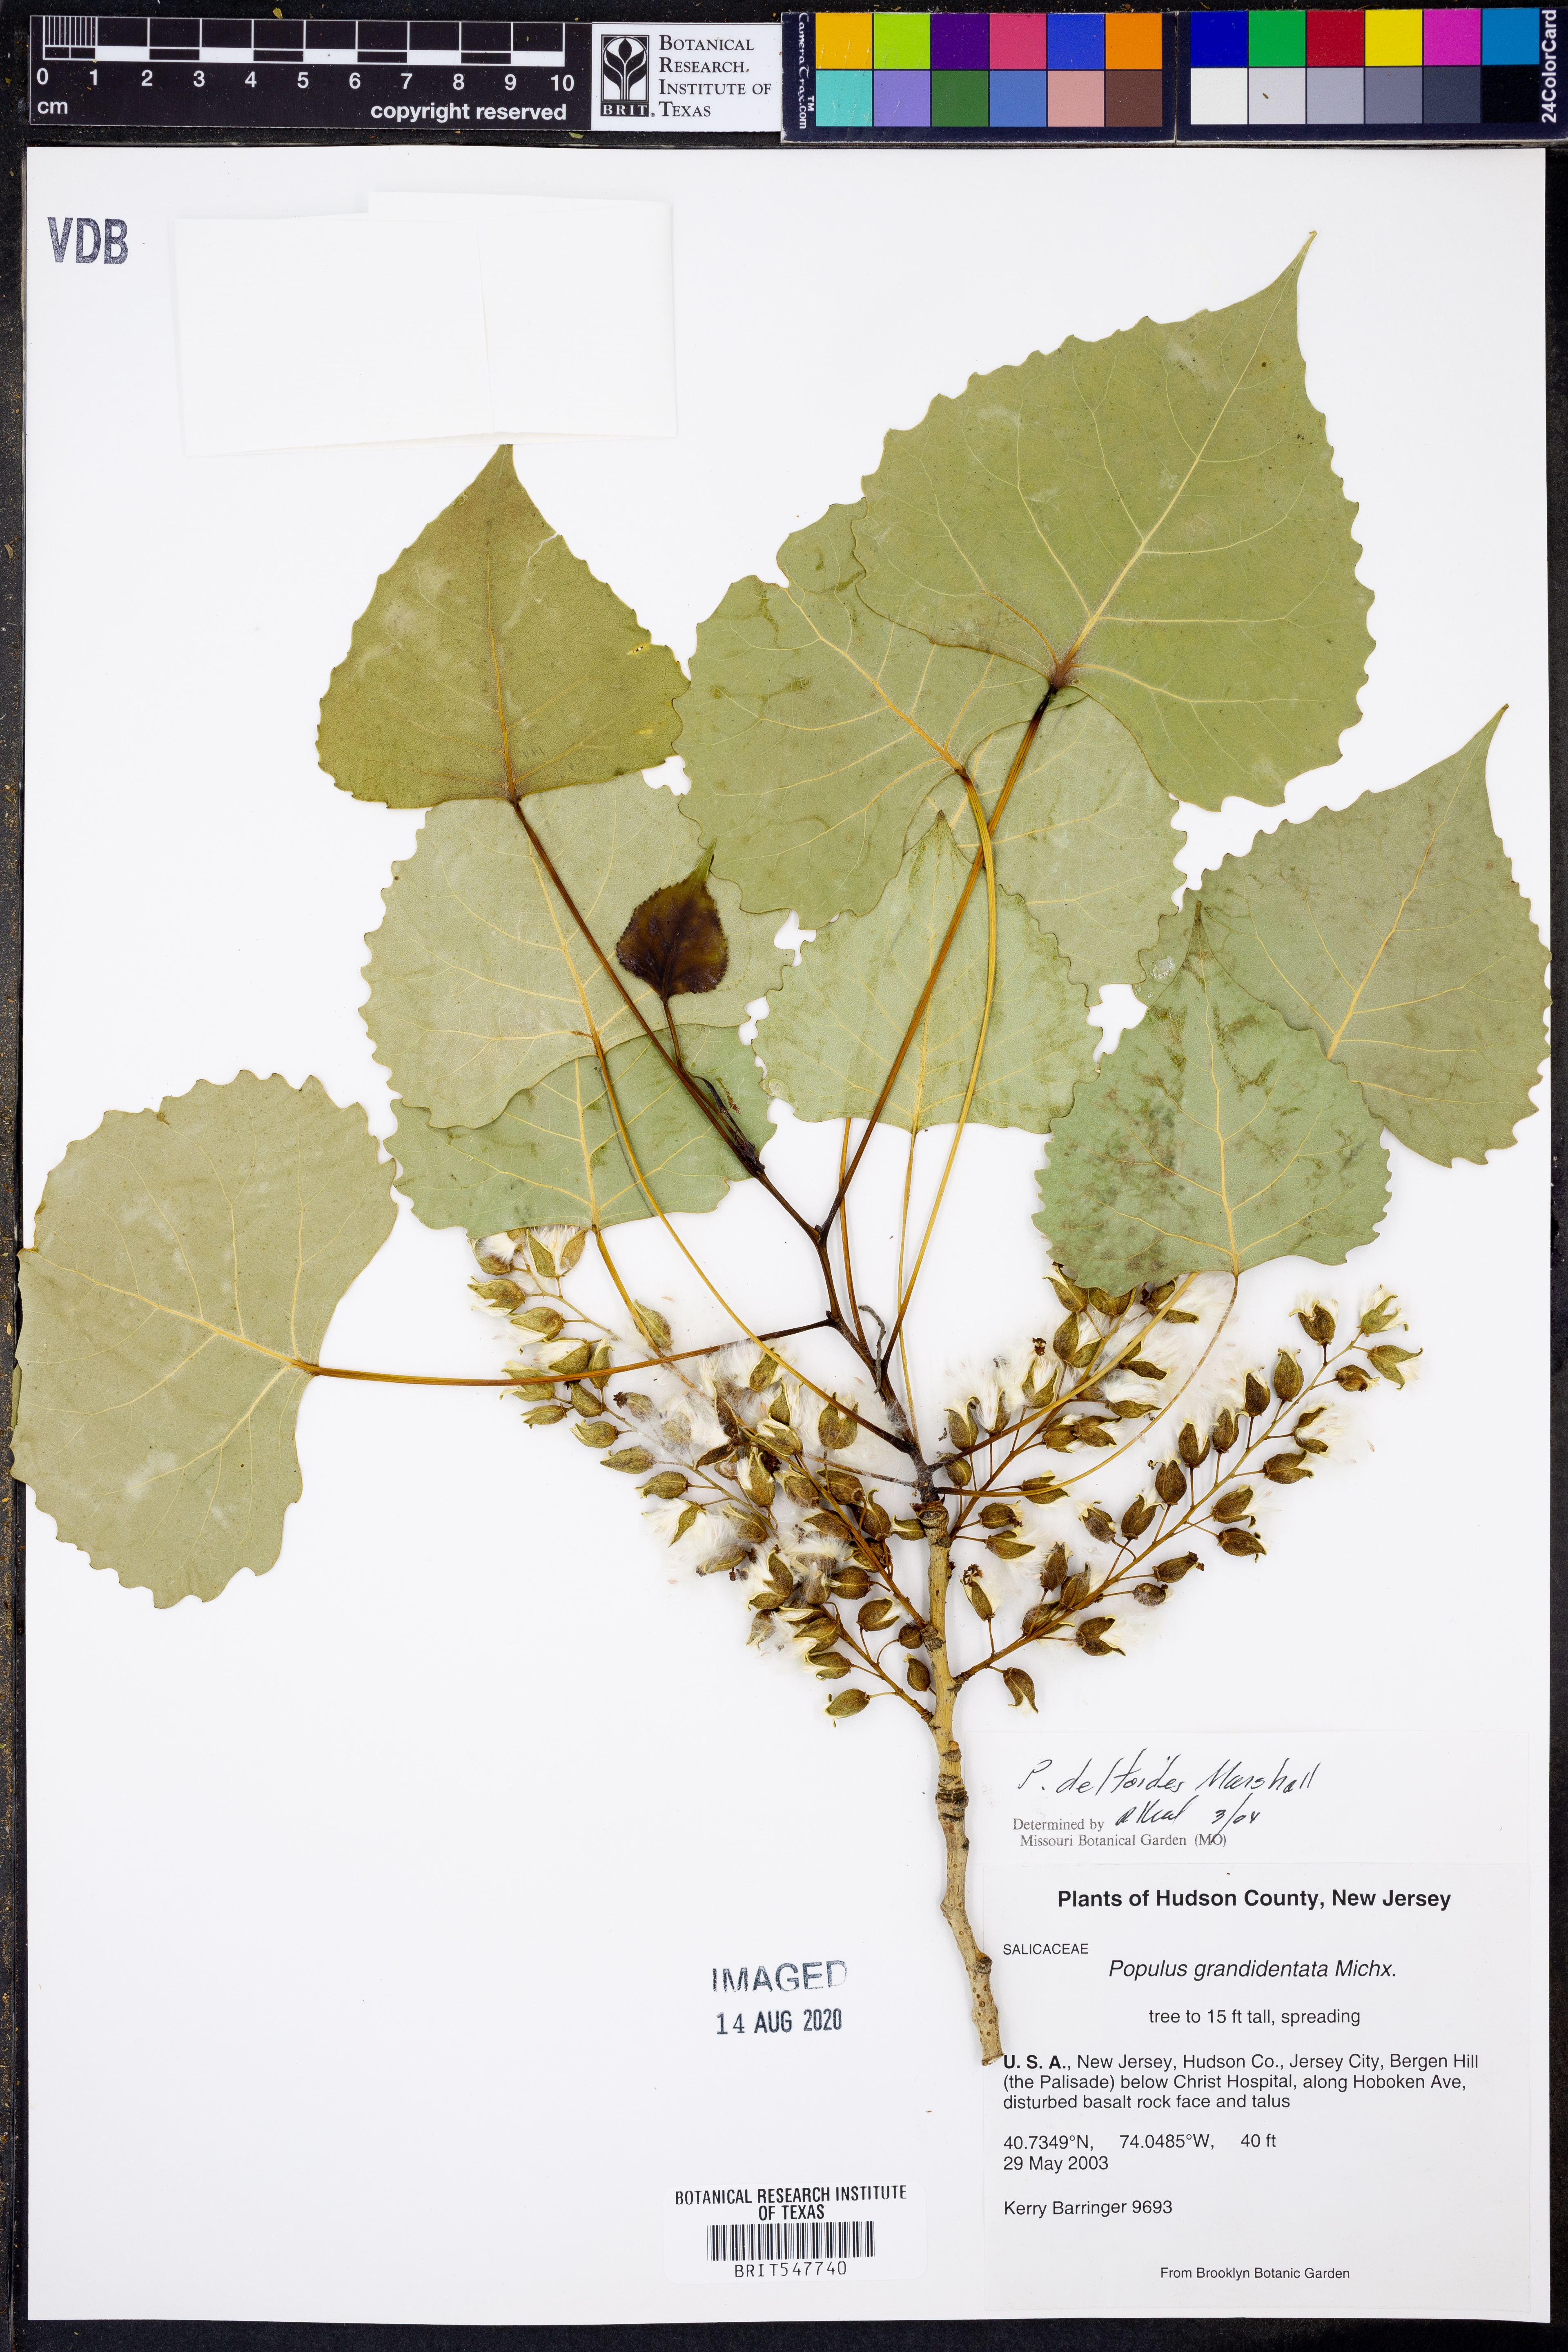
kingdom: Plantae
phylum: Tracheophyta
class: Magnoliopsida
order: Malpighiales
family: Salicaceae
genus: Populus
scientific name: Populus deltoides
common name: Eastern cottonwood
